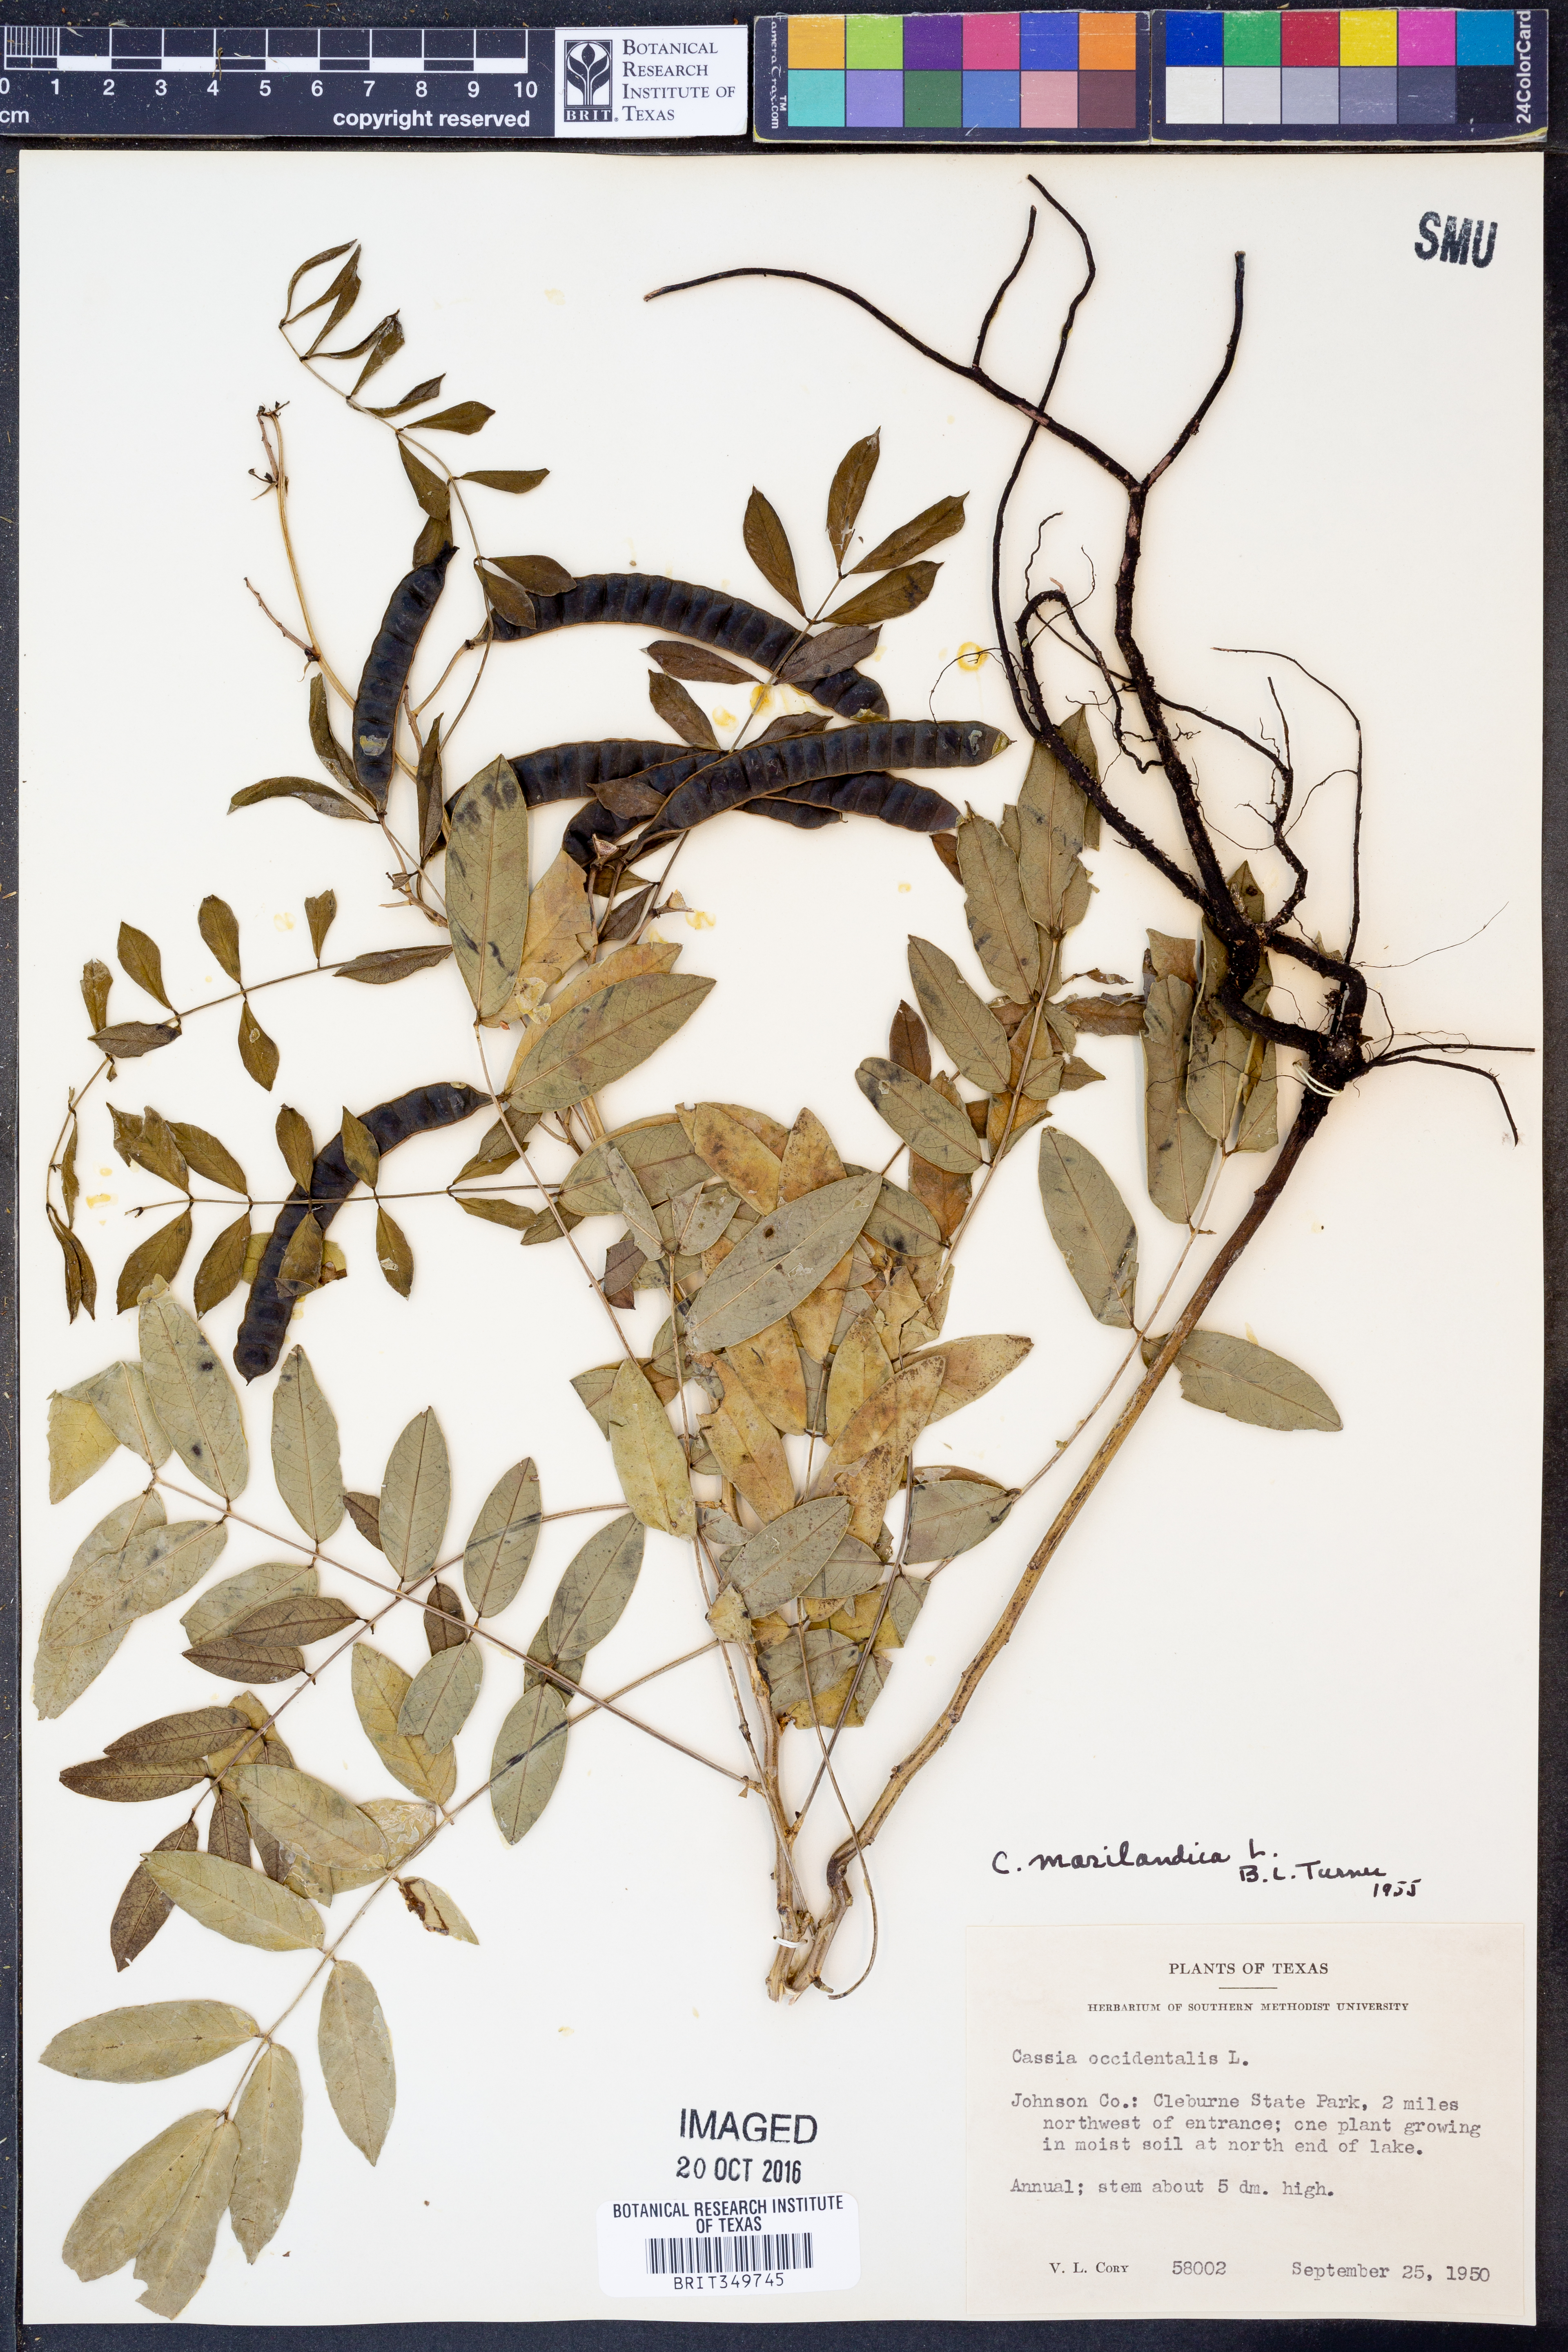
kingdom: Plantae
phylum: Tracheophyta
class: Magnoliopsida
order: Fabales
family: Fabaceae
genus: Senna
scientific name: Senna marilandica
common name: American senna
